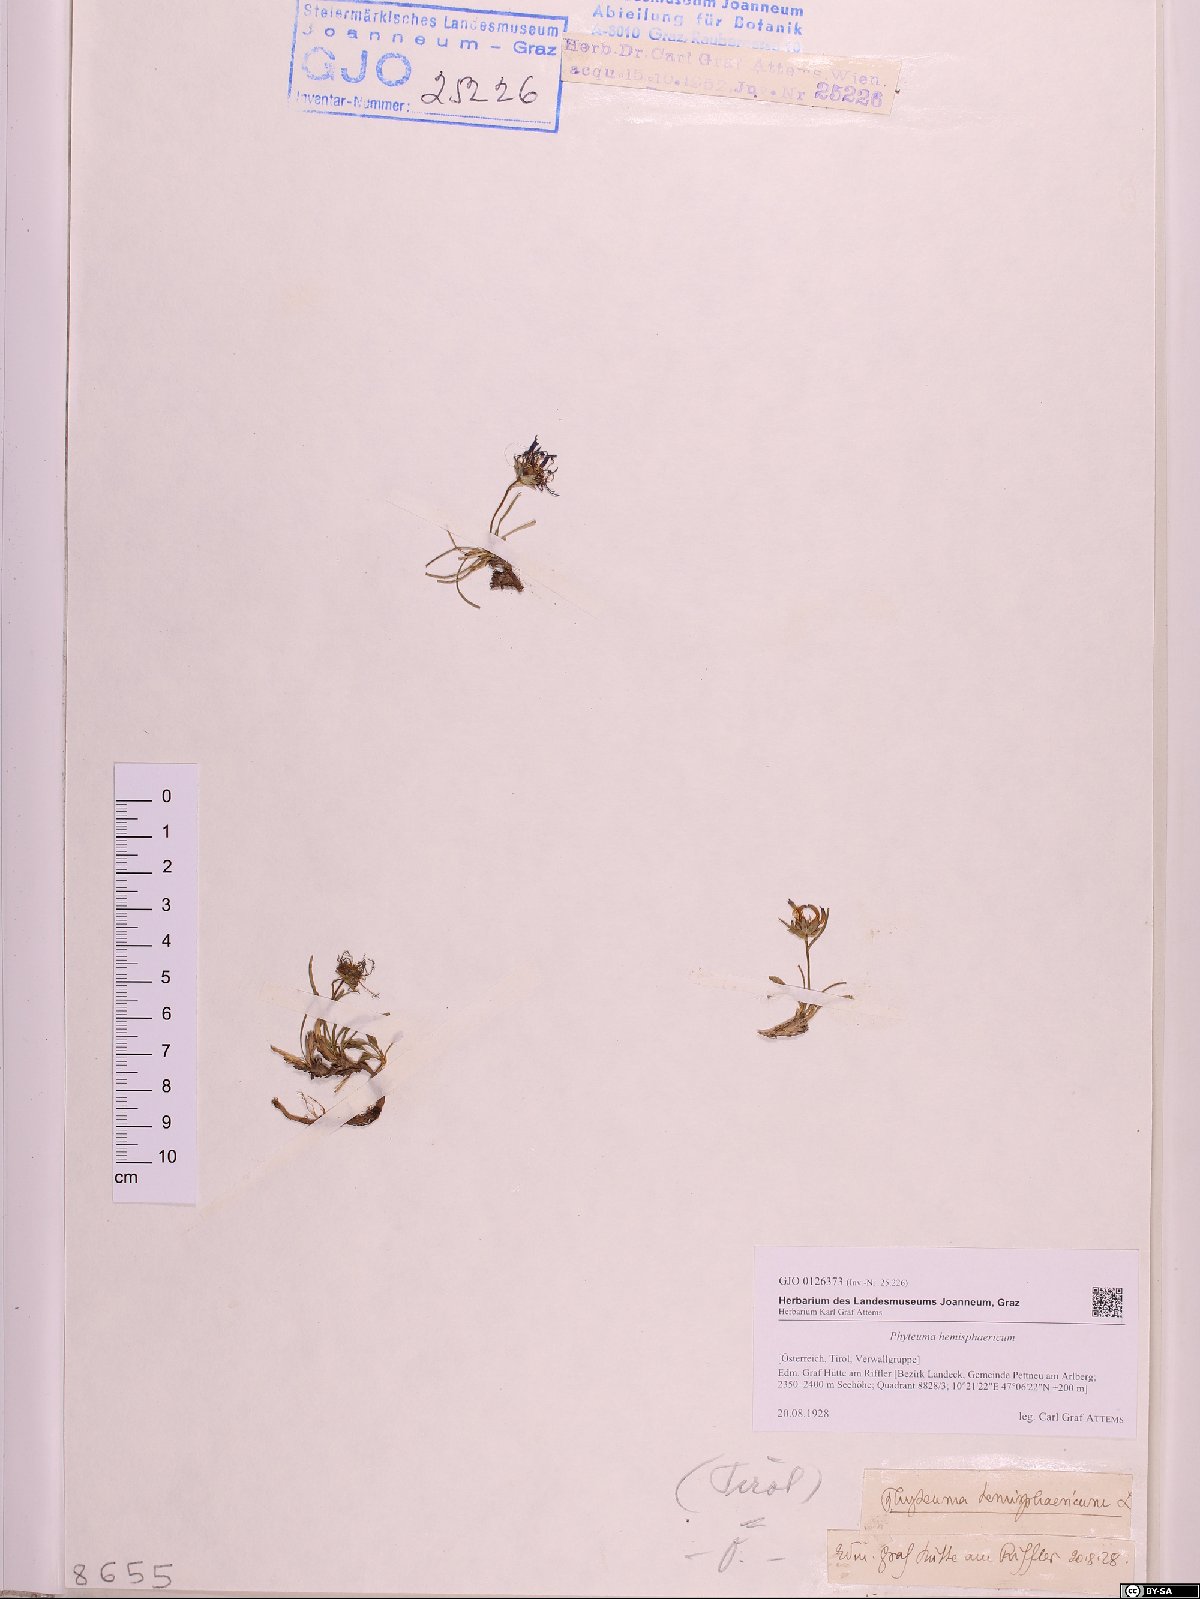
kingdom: Plantae
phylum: Tracheophyta
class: Magnoliopsida
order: Asterales
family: Campanulaceae
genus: Phyteuma
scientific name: Phyteuma hemisphaericum
